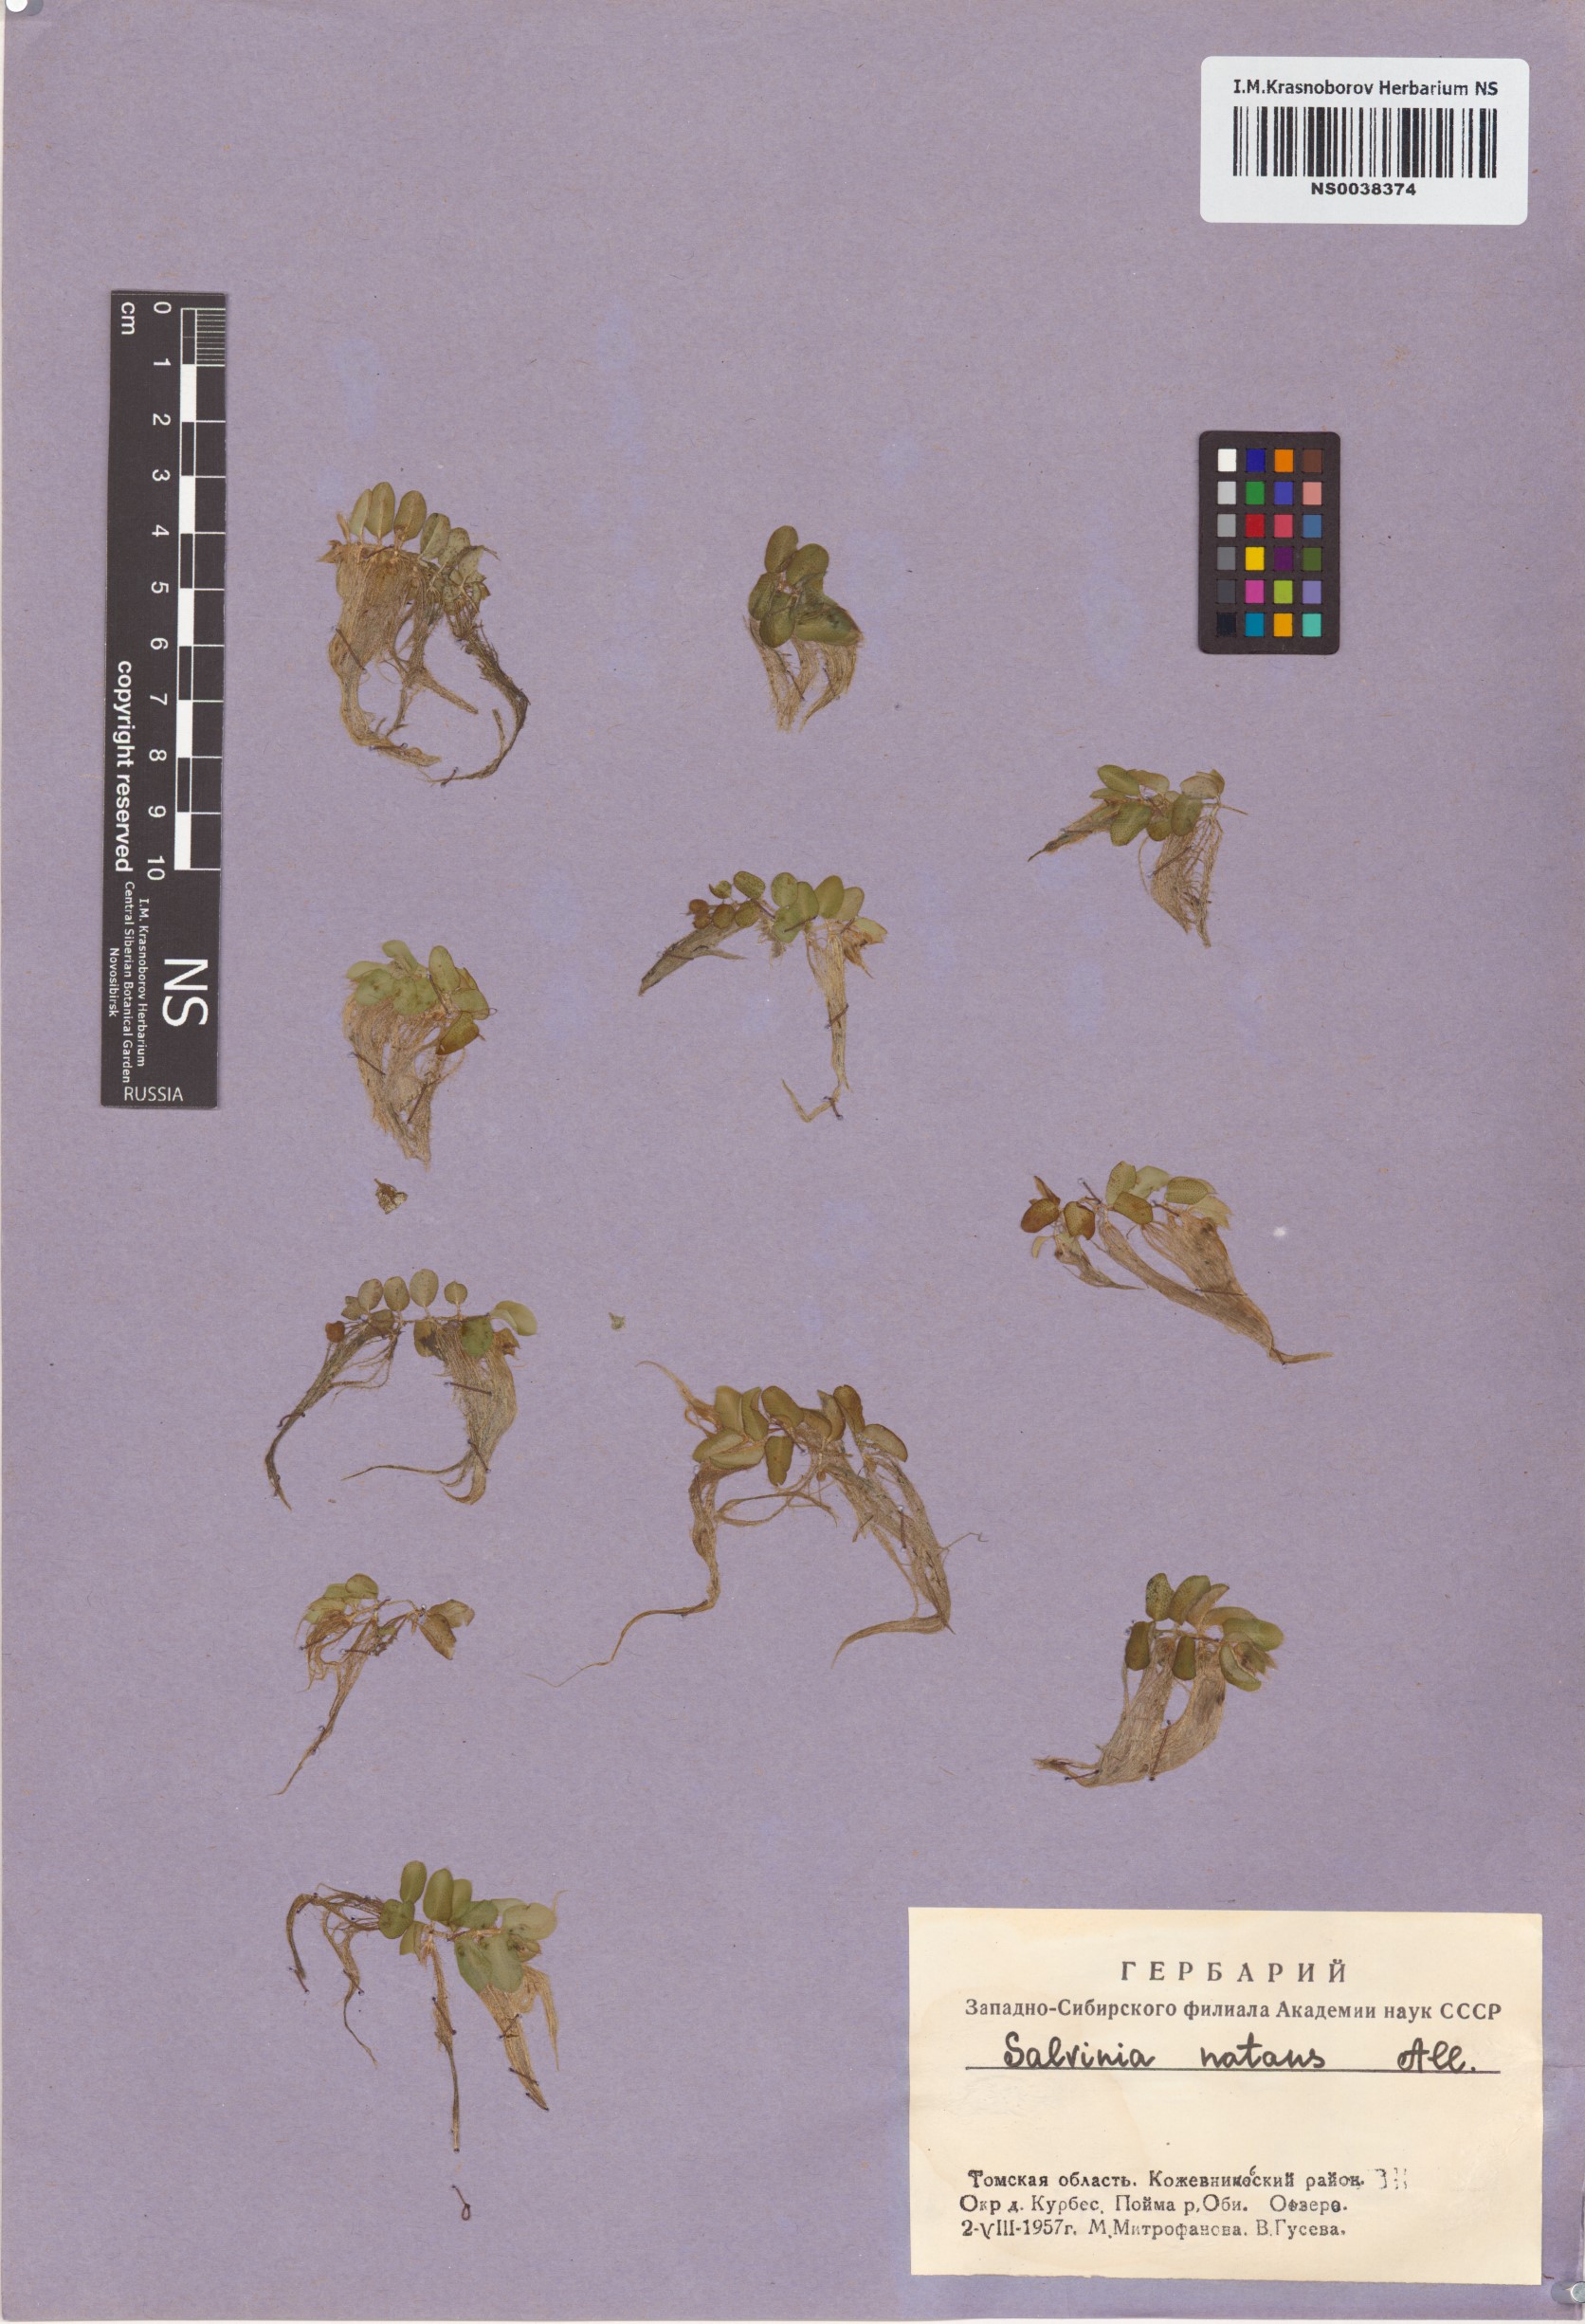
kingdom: Plantae
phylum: Tracheophyta
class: Polypodiopsida
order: Salviniales
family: Salviniaceae
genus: Salvinia
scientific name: Salvinia natans
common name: Floating fern
